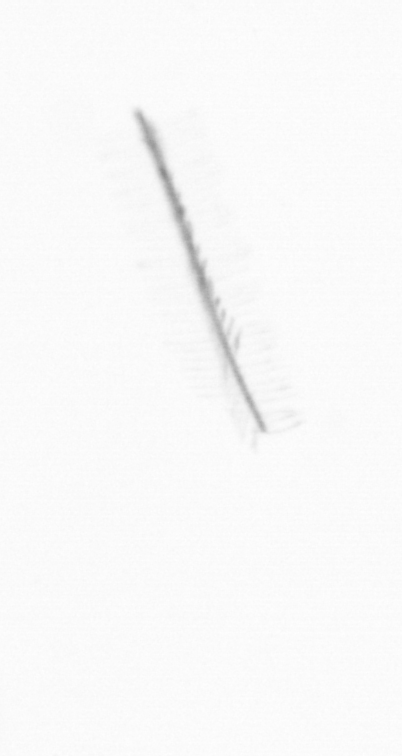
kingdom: Chromista
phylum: Ochrophyta
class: Bacillariophyceae
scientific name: Bacillariophyceae
